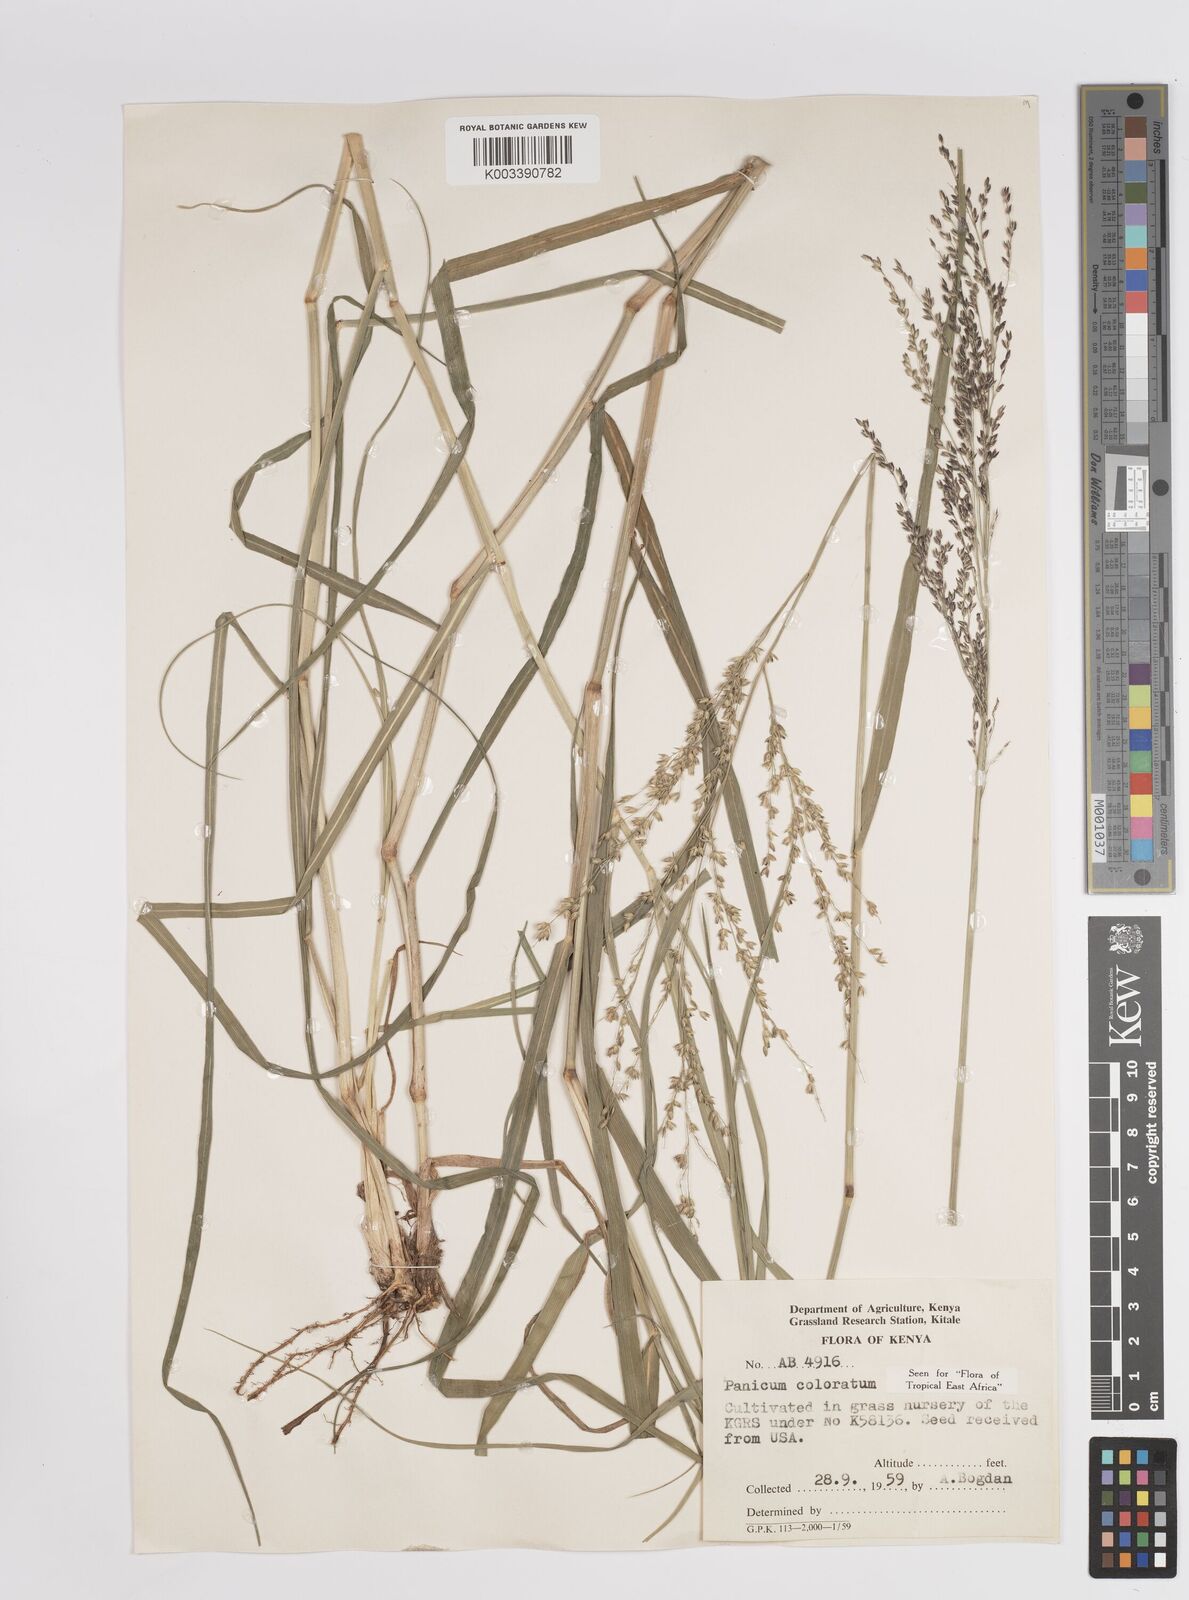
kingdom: Plantae
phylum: Tracheophyta
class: Liliopsida
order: Poales
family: Poaceae
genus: Panicum
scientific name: Panicum coloratum
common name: Kleingrass
